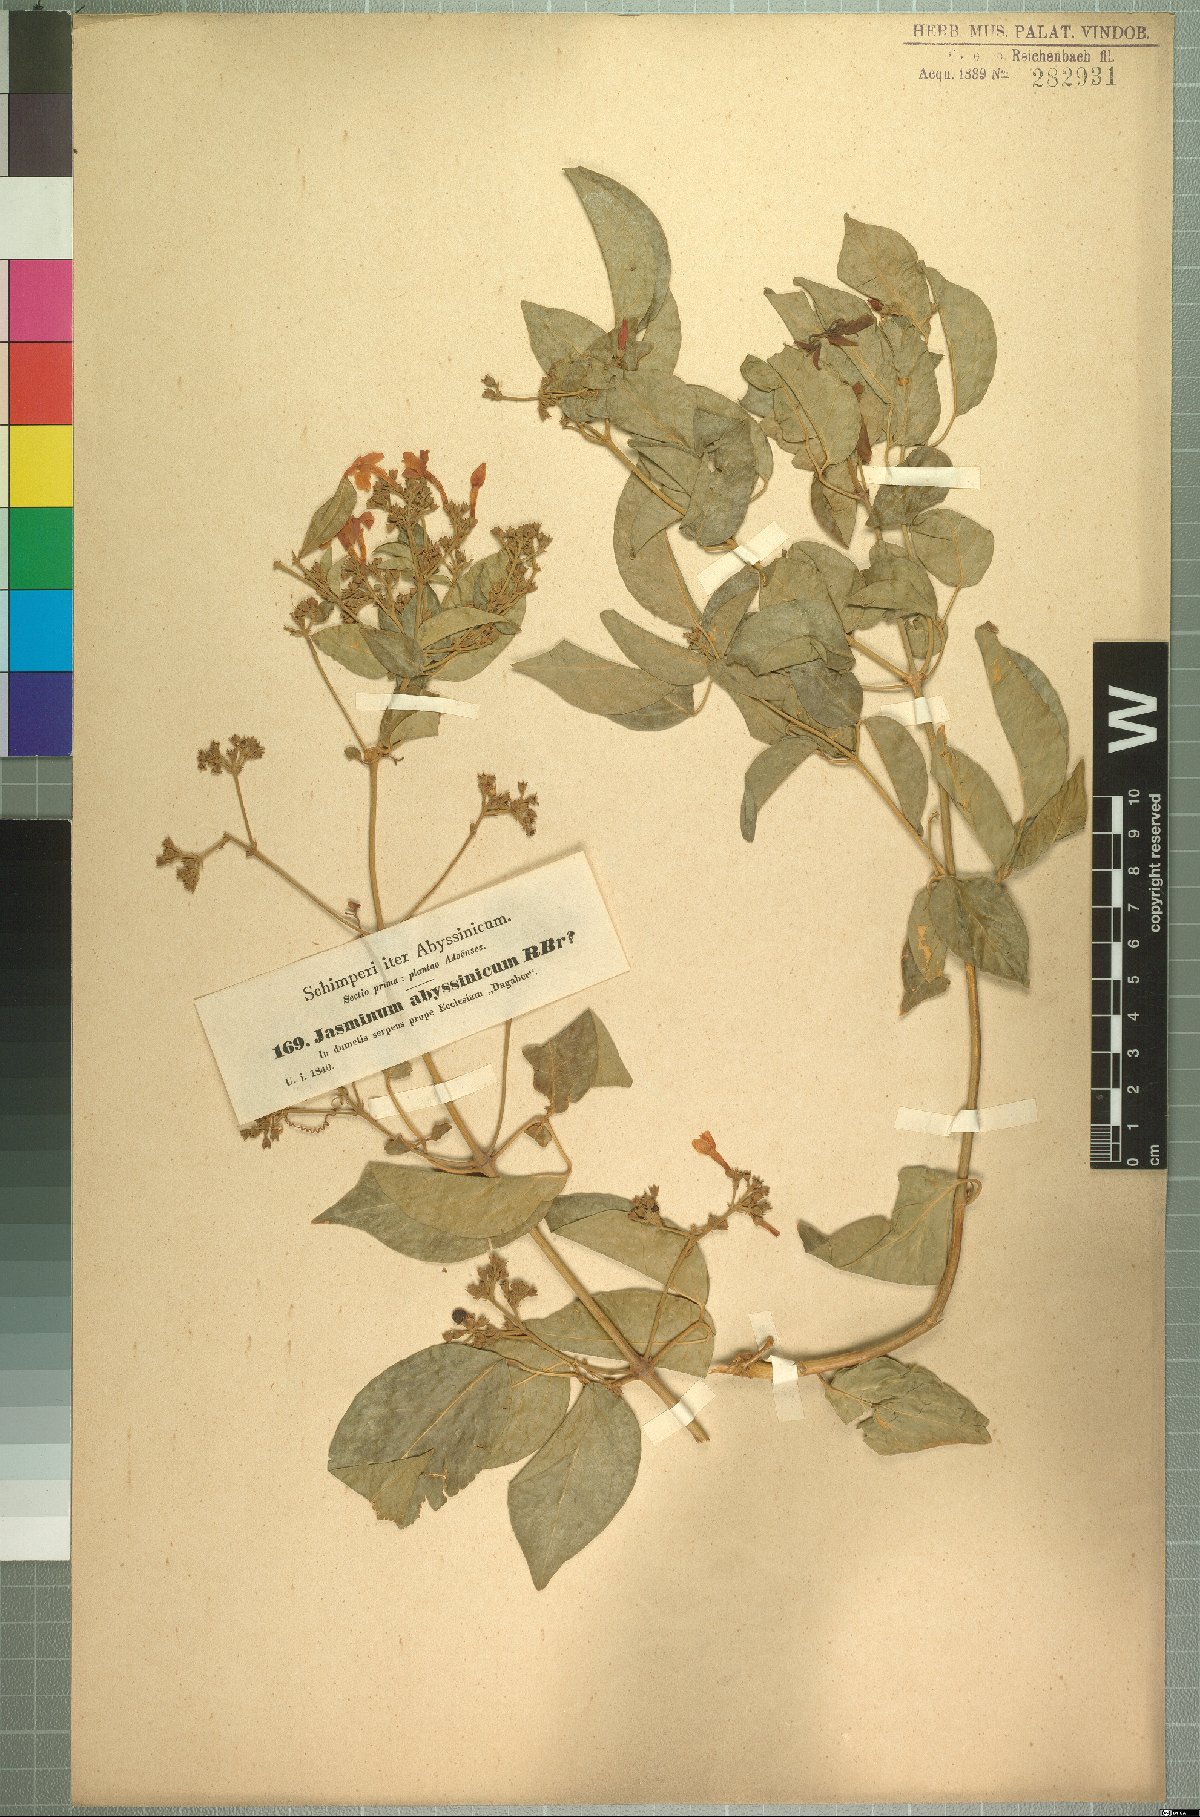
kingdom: Plantae
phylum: Tracheophyta
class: Magnoliopsida
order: Lamiales
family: Oleaceae
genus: Jasminum
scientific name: Jasminum abyssinicum
